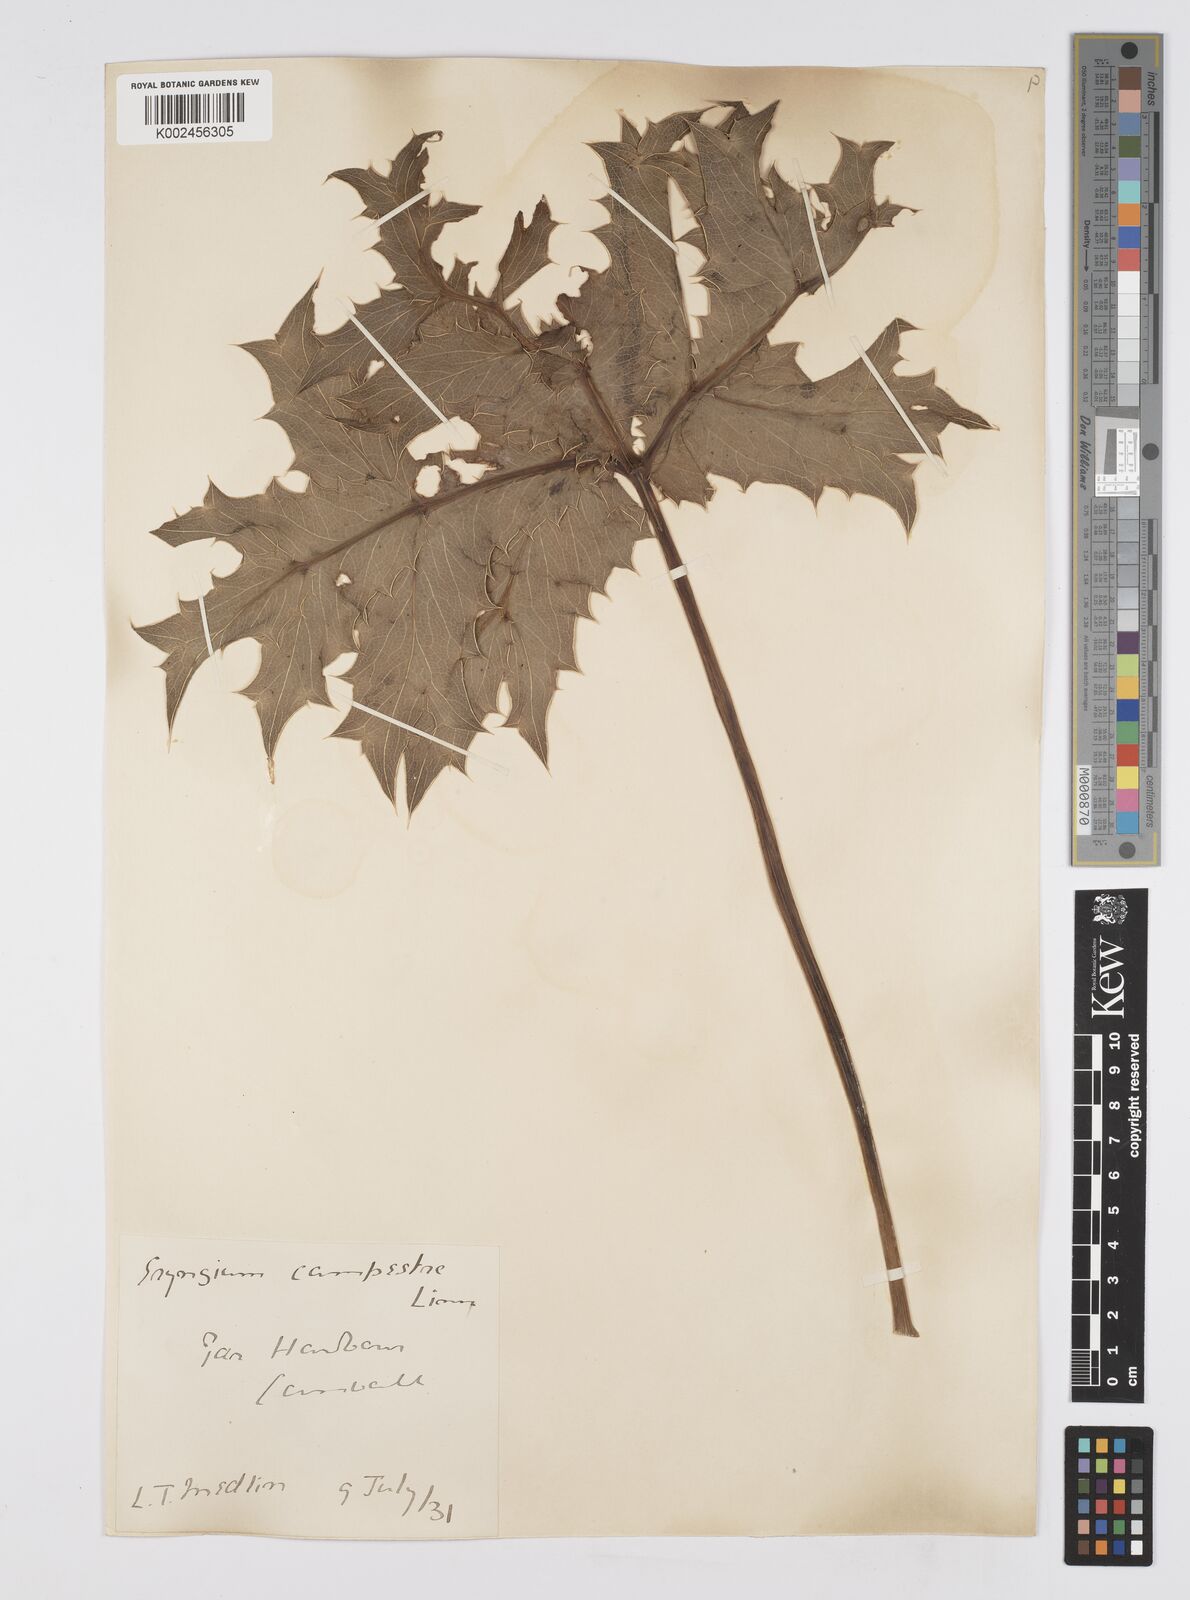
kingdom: Plantae
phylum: Tracheophyta
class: Magnoliopsida
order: Apiales
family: Apiaceae
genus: Eryngium
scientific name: Eryngium campestre
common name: Field eryngo
